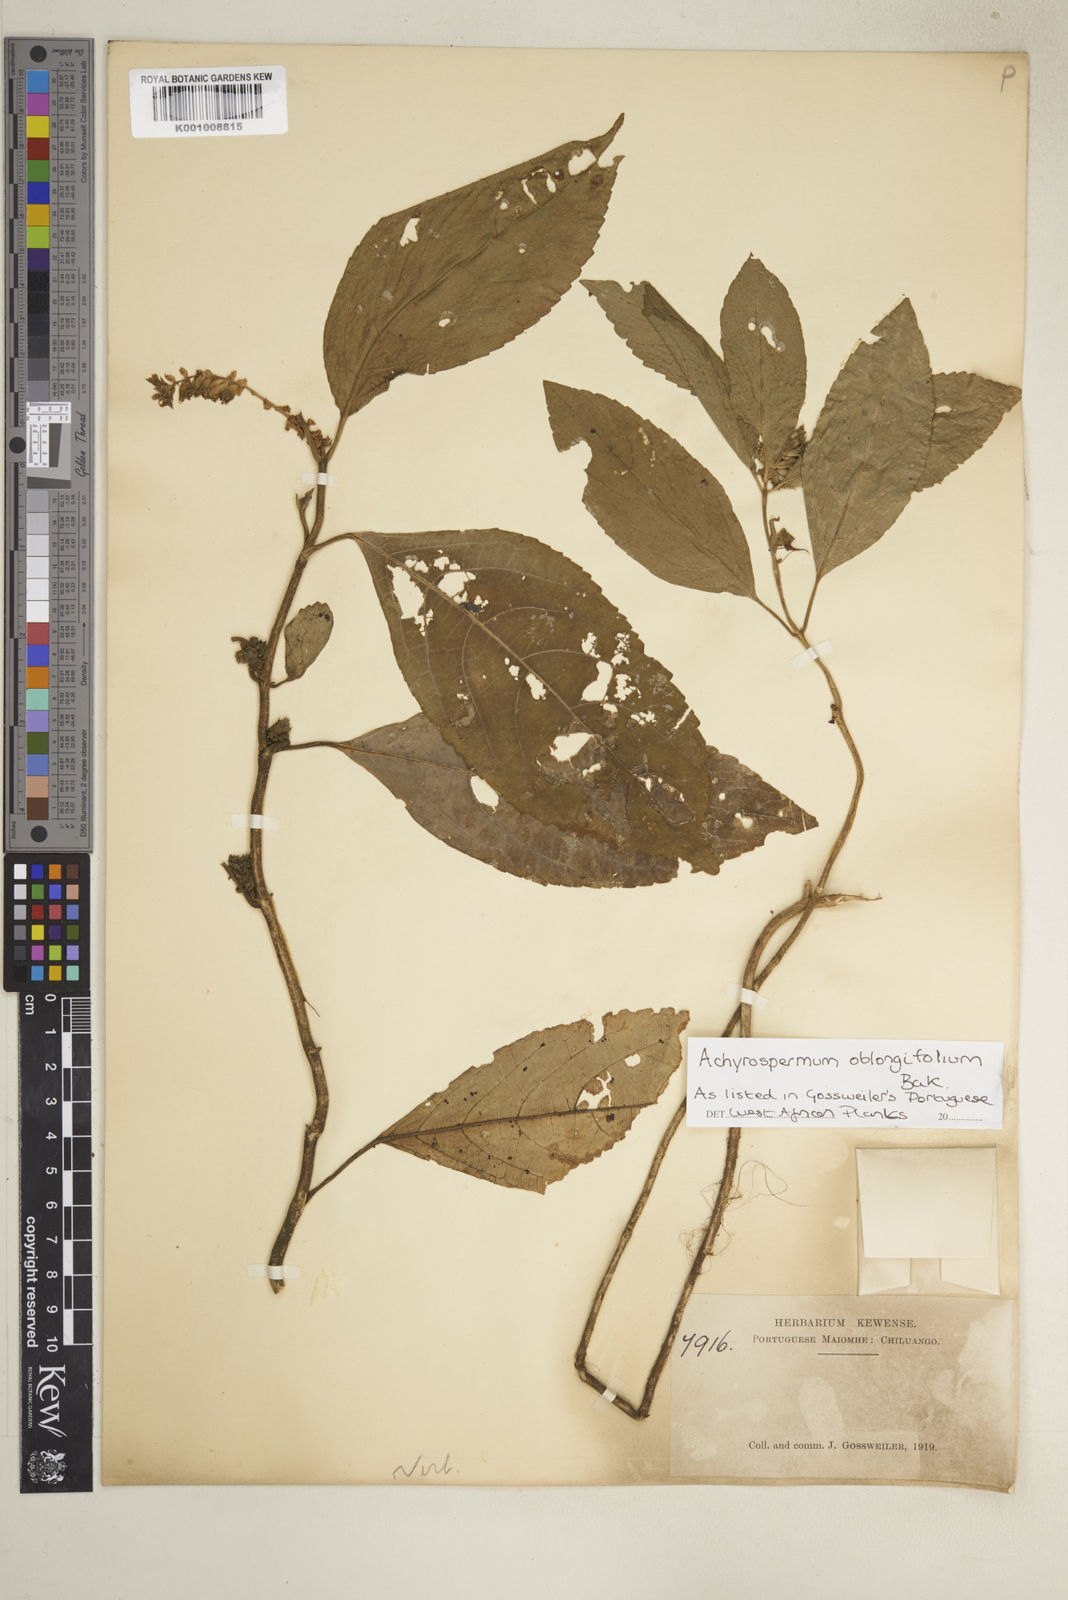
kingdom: Plantae
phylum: Tracheophyta
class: Magnoliopsida
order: Lamiales
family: Lamiaceae
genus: Achyrospermum
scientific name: Achyrospermum oblongifolium
